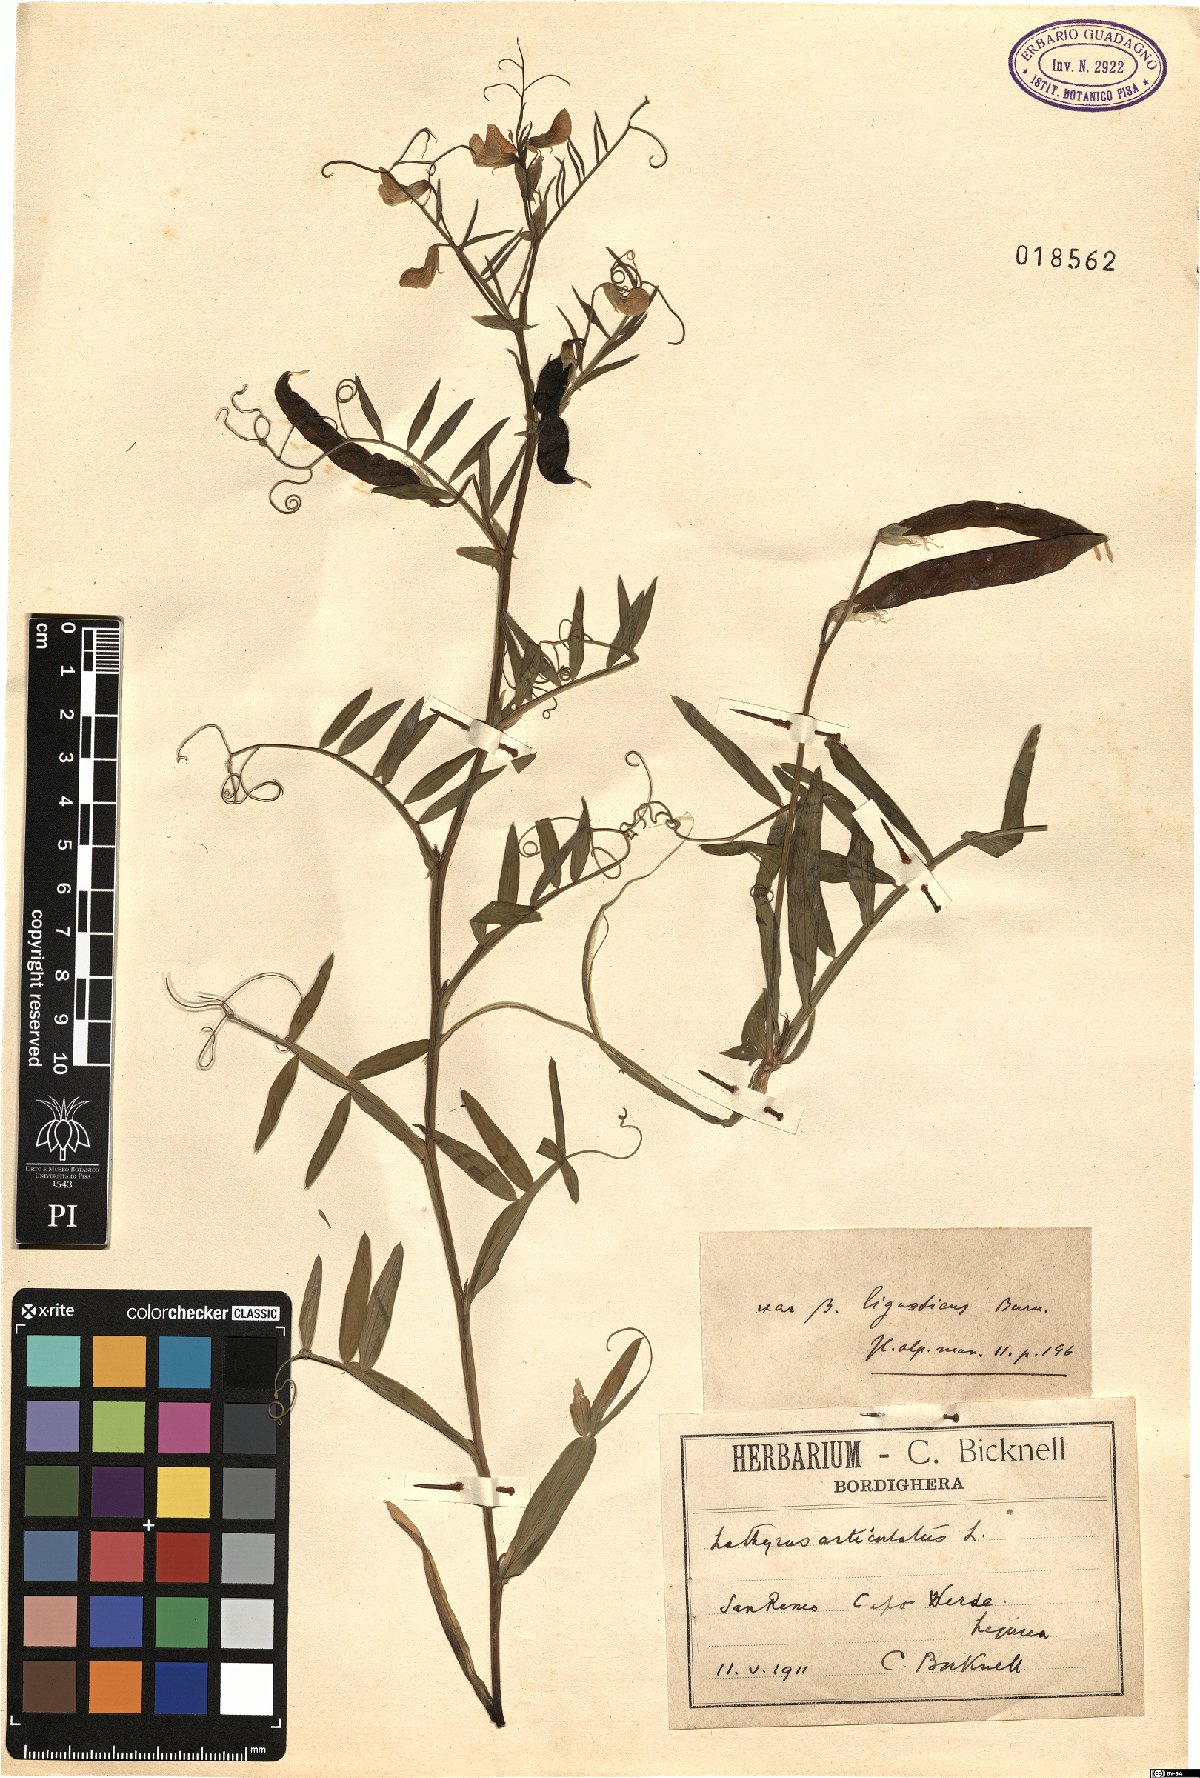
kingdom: Plantae
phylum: Tracheophyta
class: Magnoliopsida
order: Fabales
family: Fabaceae
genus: Lathyrus
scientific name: Lathyrus clymenum
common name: Spanish vetchling
